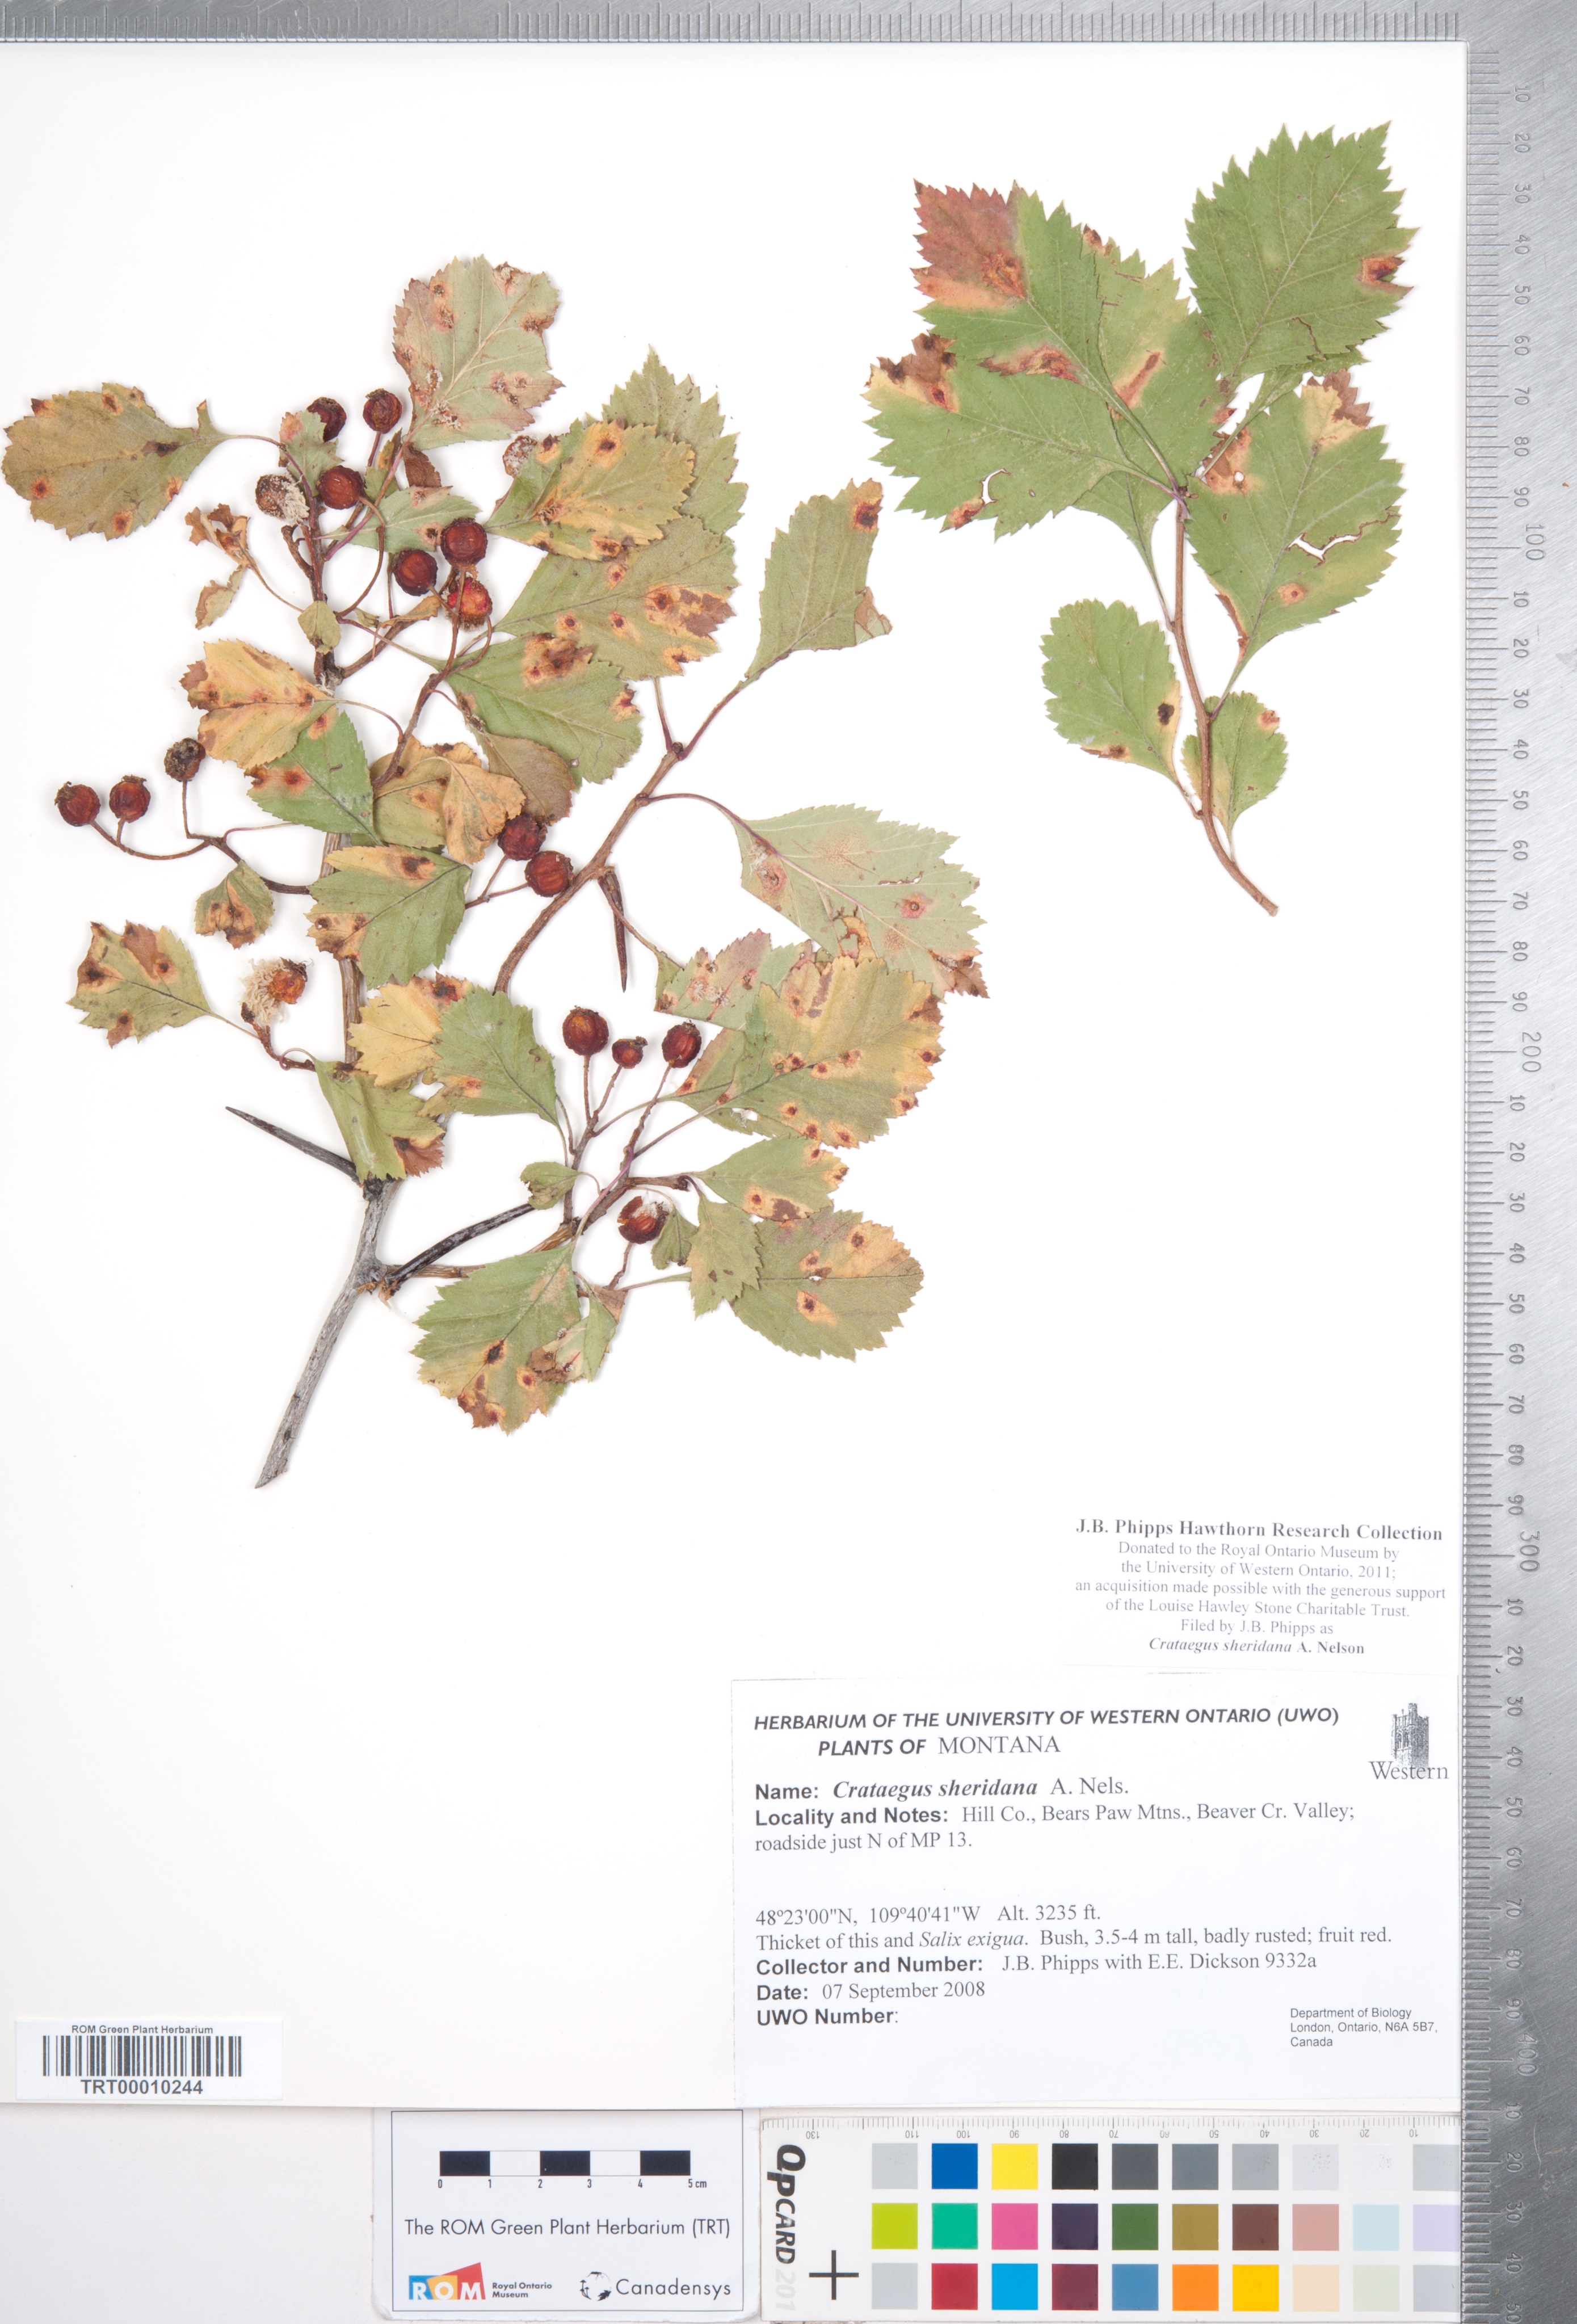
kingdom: Plantae
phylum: Tracheophyta
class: Magnoliopsida
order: Rosales
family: Rosaceae
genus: Crataegus
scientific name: Crataegus chrysocarpa
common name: Fire-berry hawthorn
